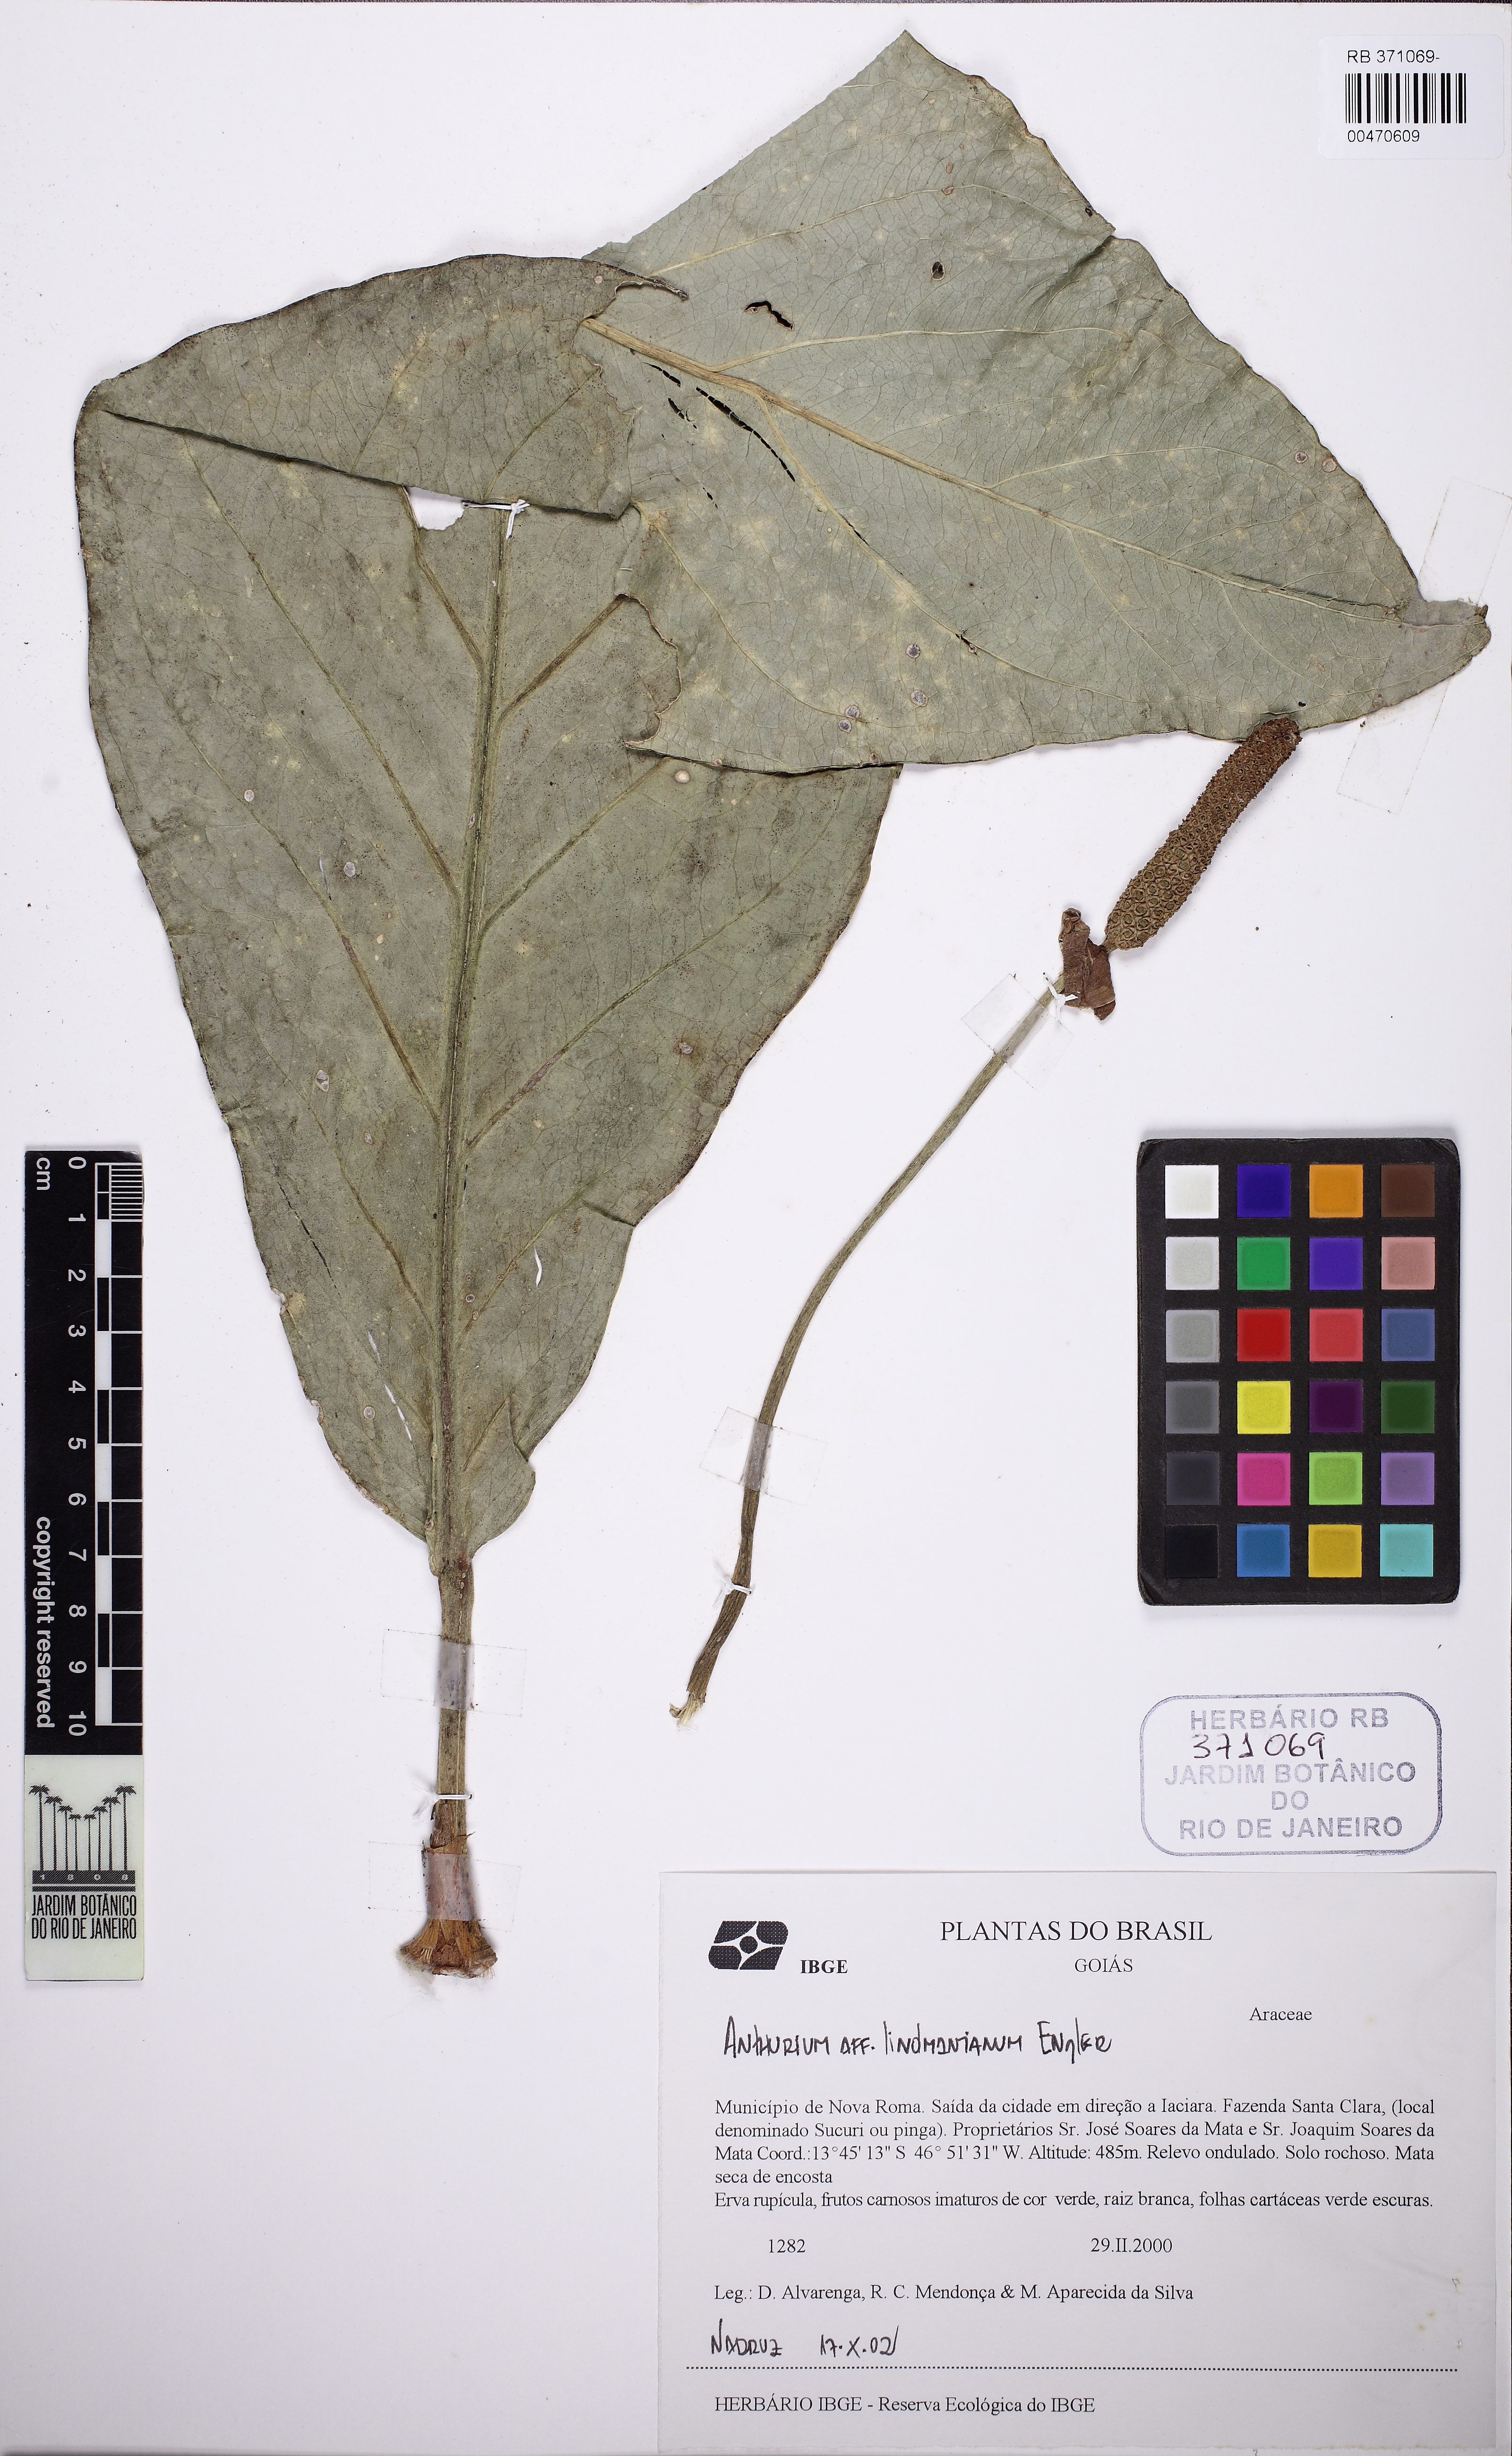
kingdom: Plantae
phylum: Tracheophyta
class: Liliopsida
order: Alismatales
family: Araceae
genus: Anthurium
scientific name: Anthurium lindmanianum
